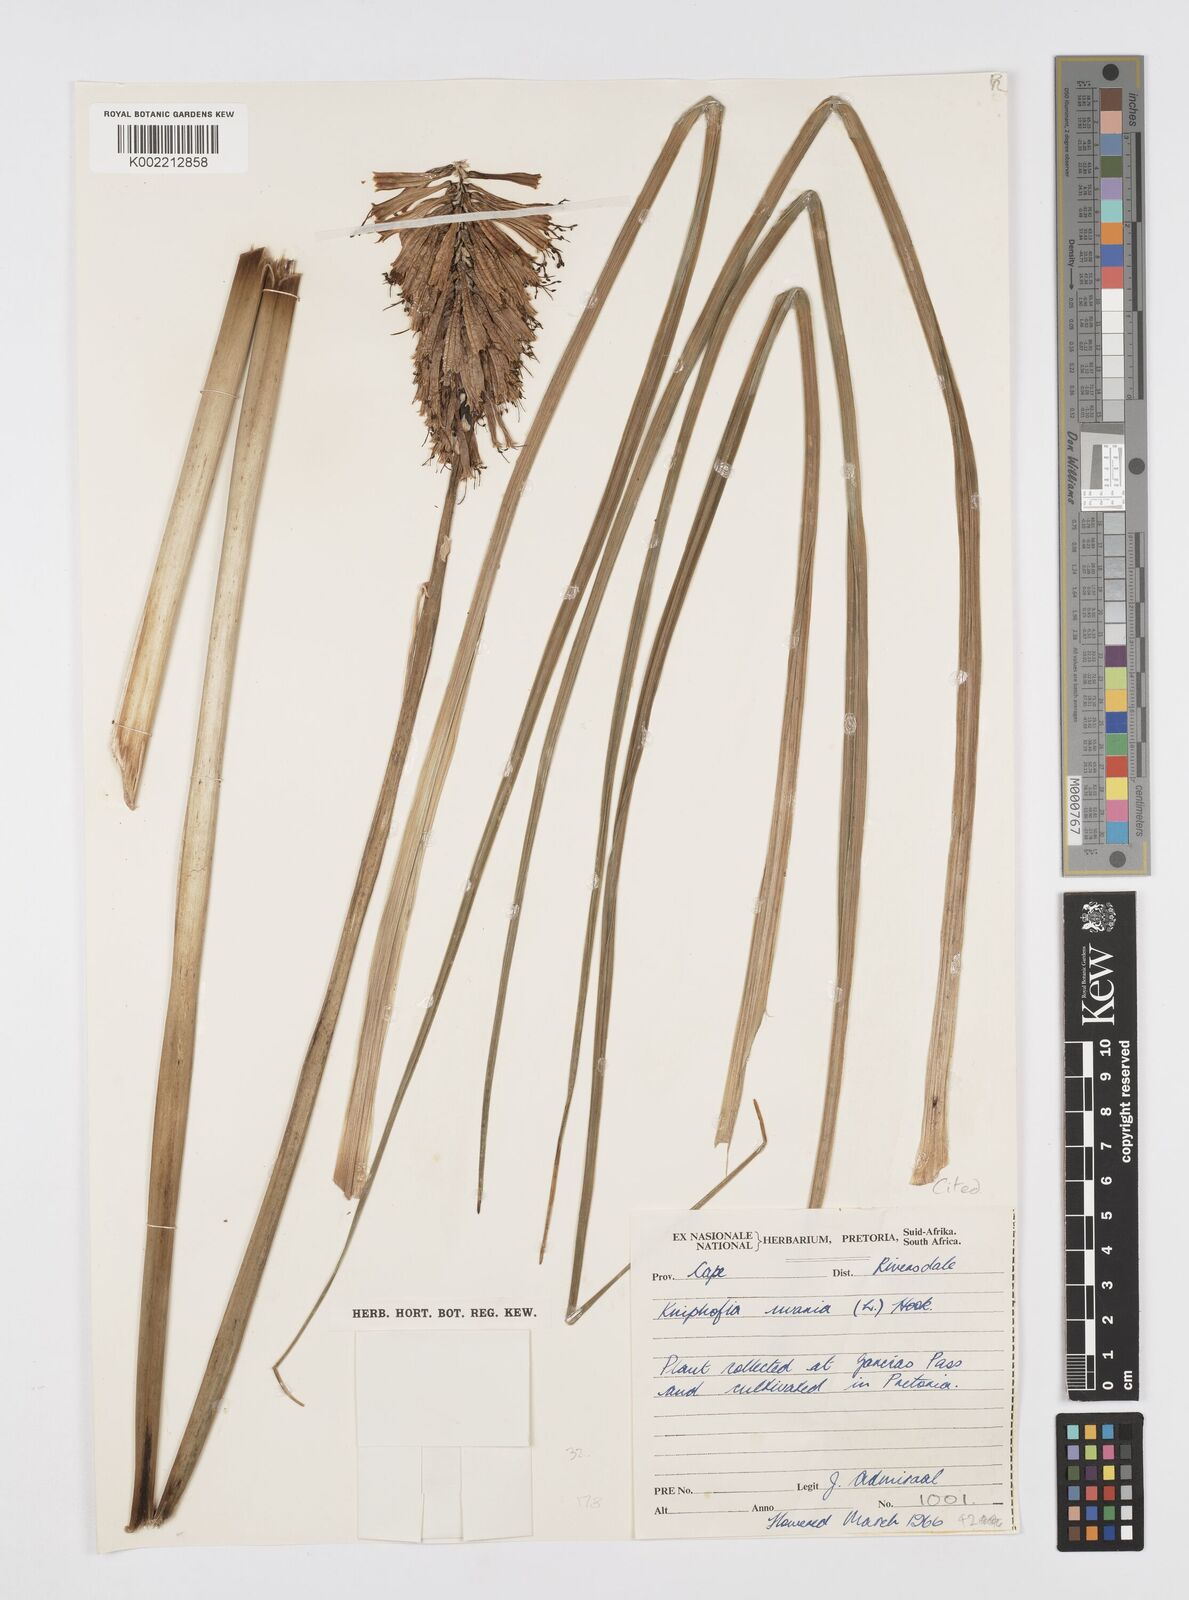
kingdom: Plantae
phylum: Tracheophyta
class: Liliopsida
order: Asparagales
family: Asphodelaceae
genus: Kniphofia
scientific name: Kniphofia uvaria
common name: Red-hot-poker
